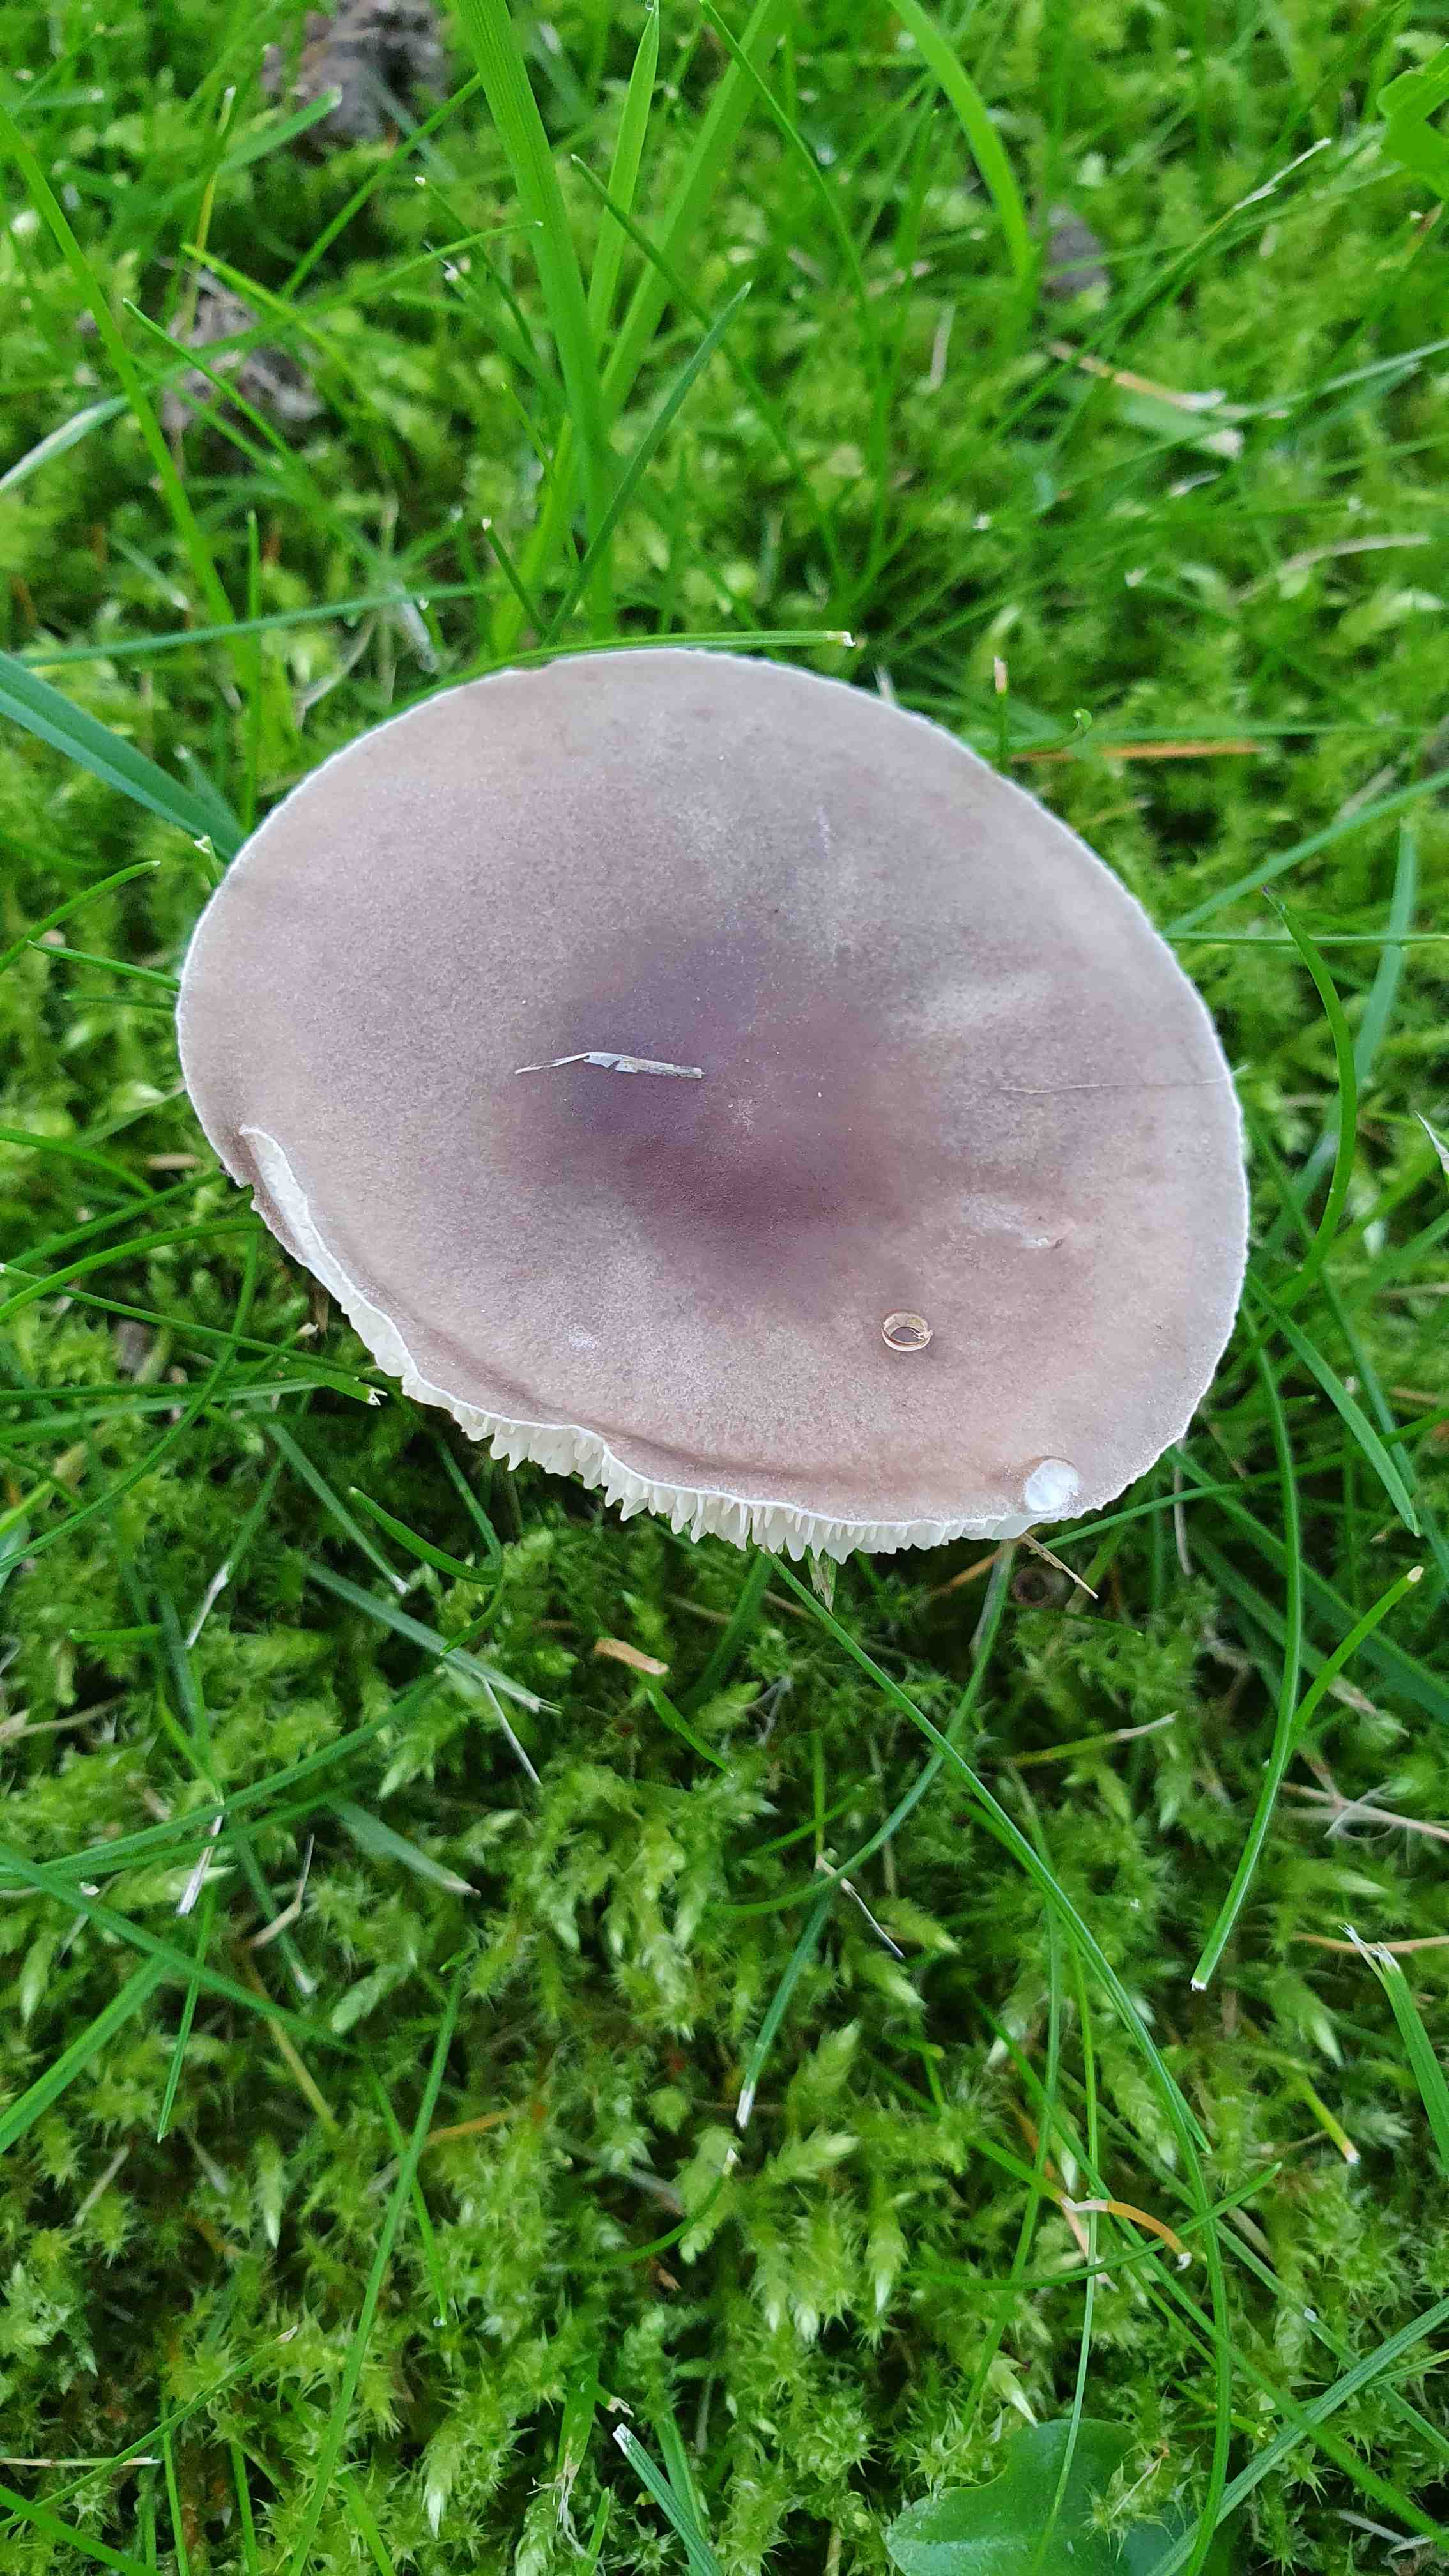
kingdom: Fungi
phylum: Basidiomycota
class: Agaricomycetes
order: Agaricales
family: Tricholomataceae
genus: Melanoleuca
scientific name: Melanoleuca
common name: munkehat
